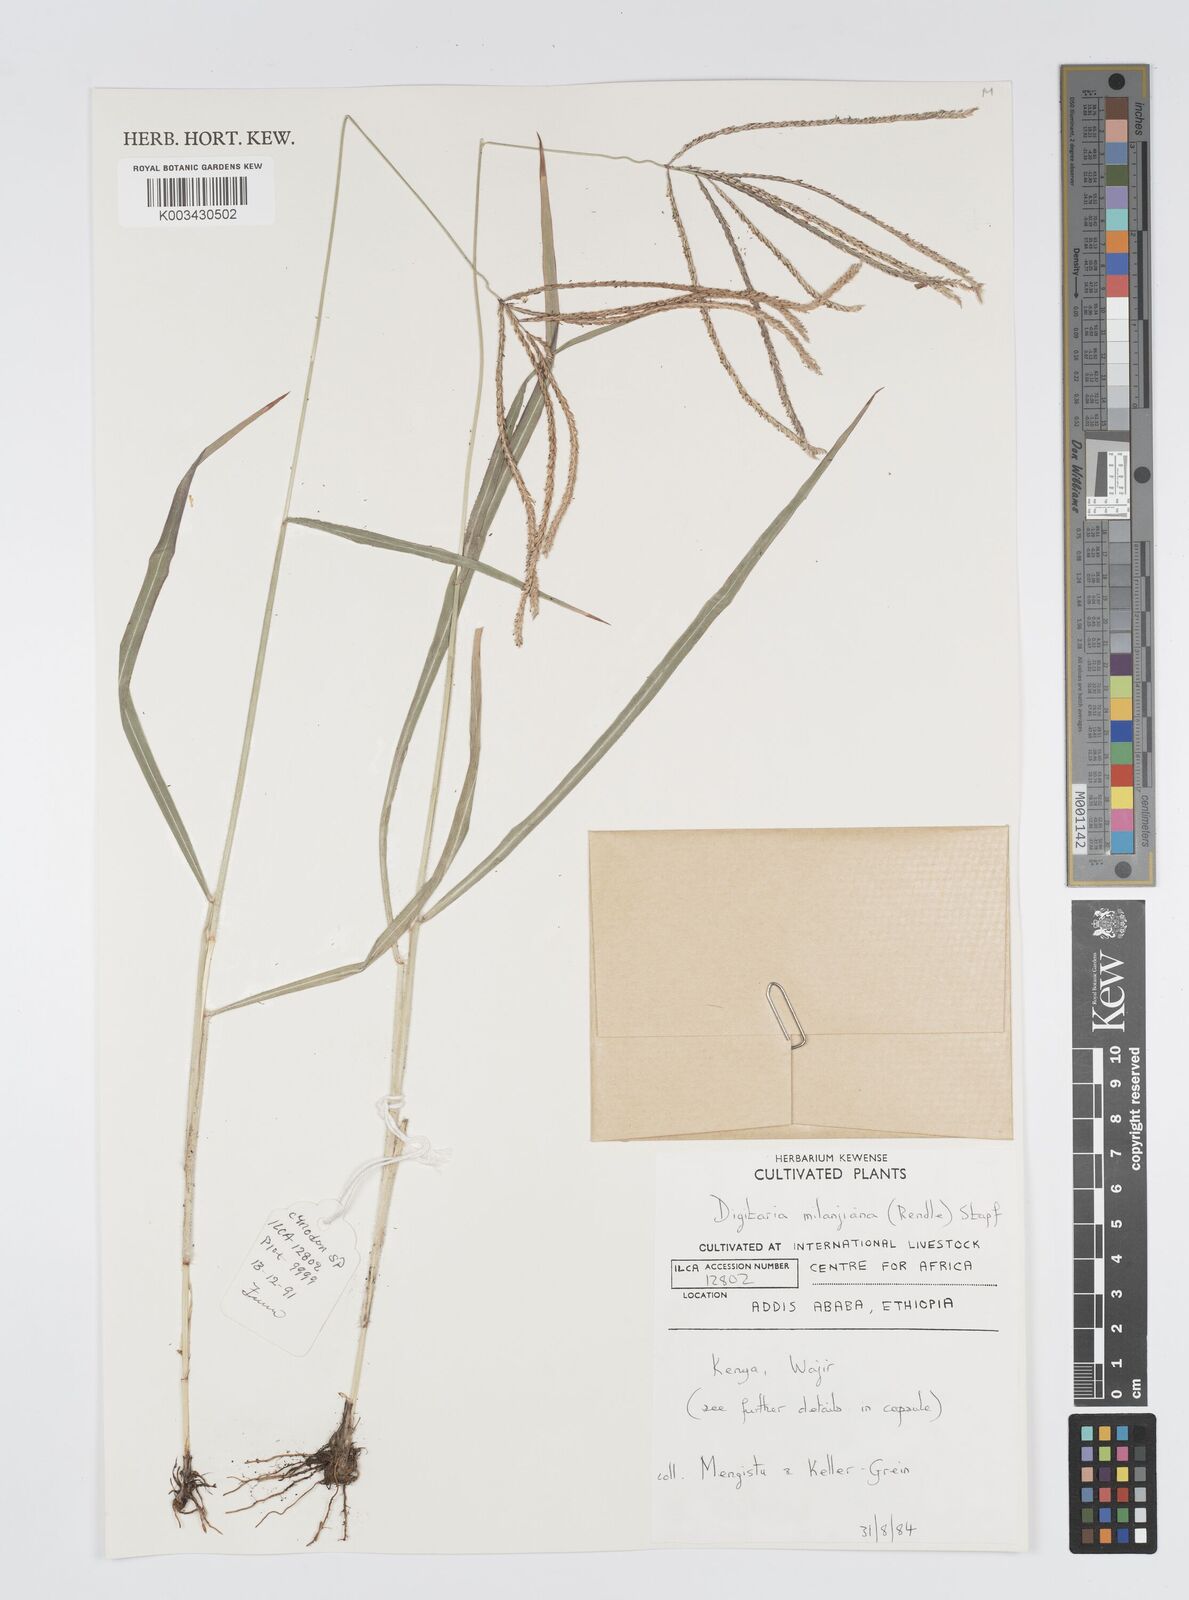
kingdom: Plantae
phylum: Tracheophyta
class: Liliopsida
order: Poales
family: Poaceae
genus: Digitaria
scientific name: Digitaria milanjiana
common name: Madagascar crabgrass
